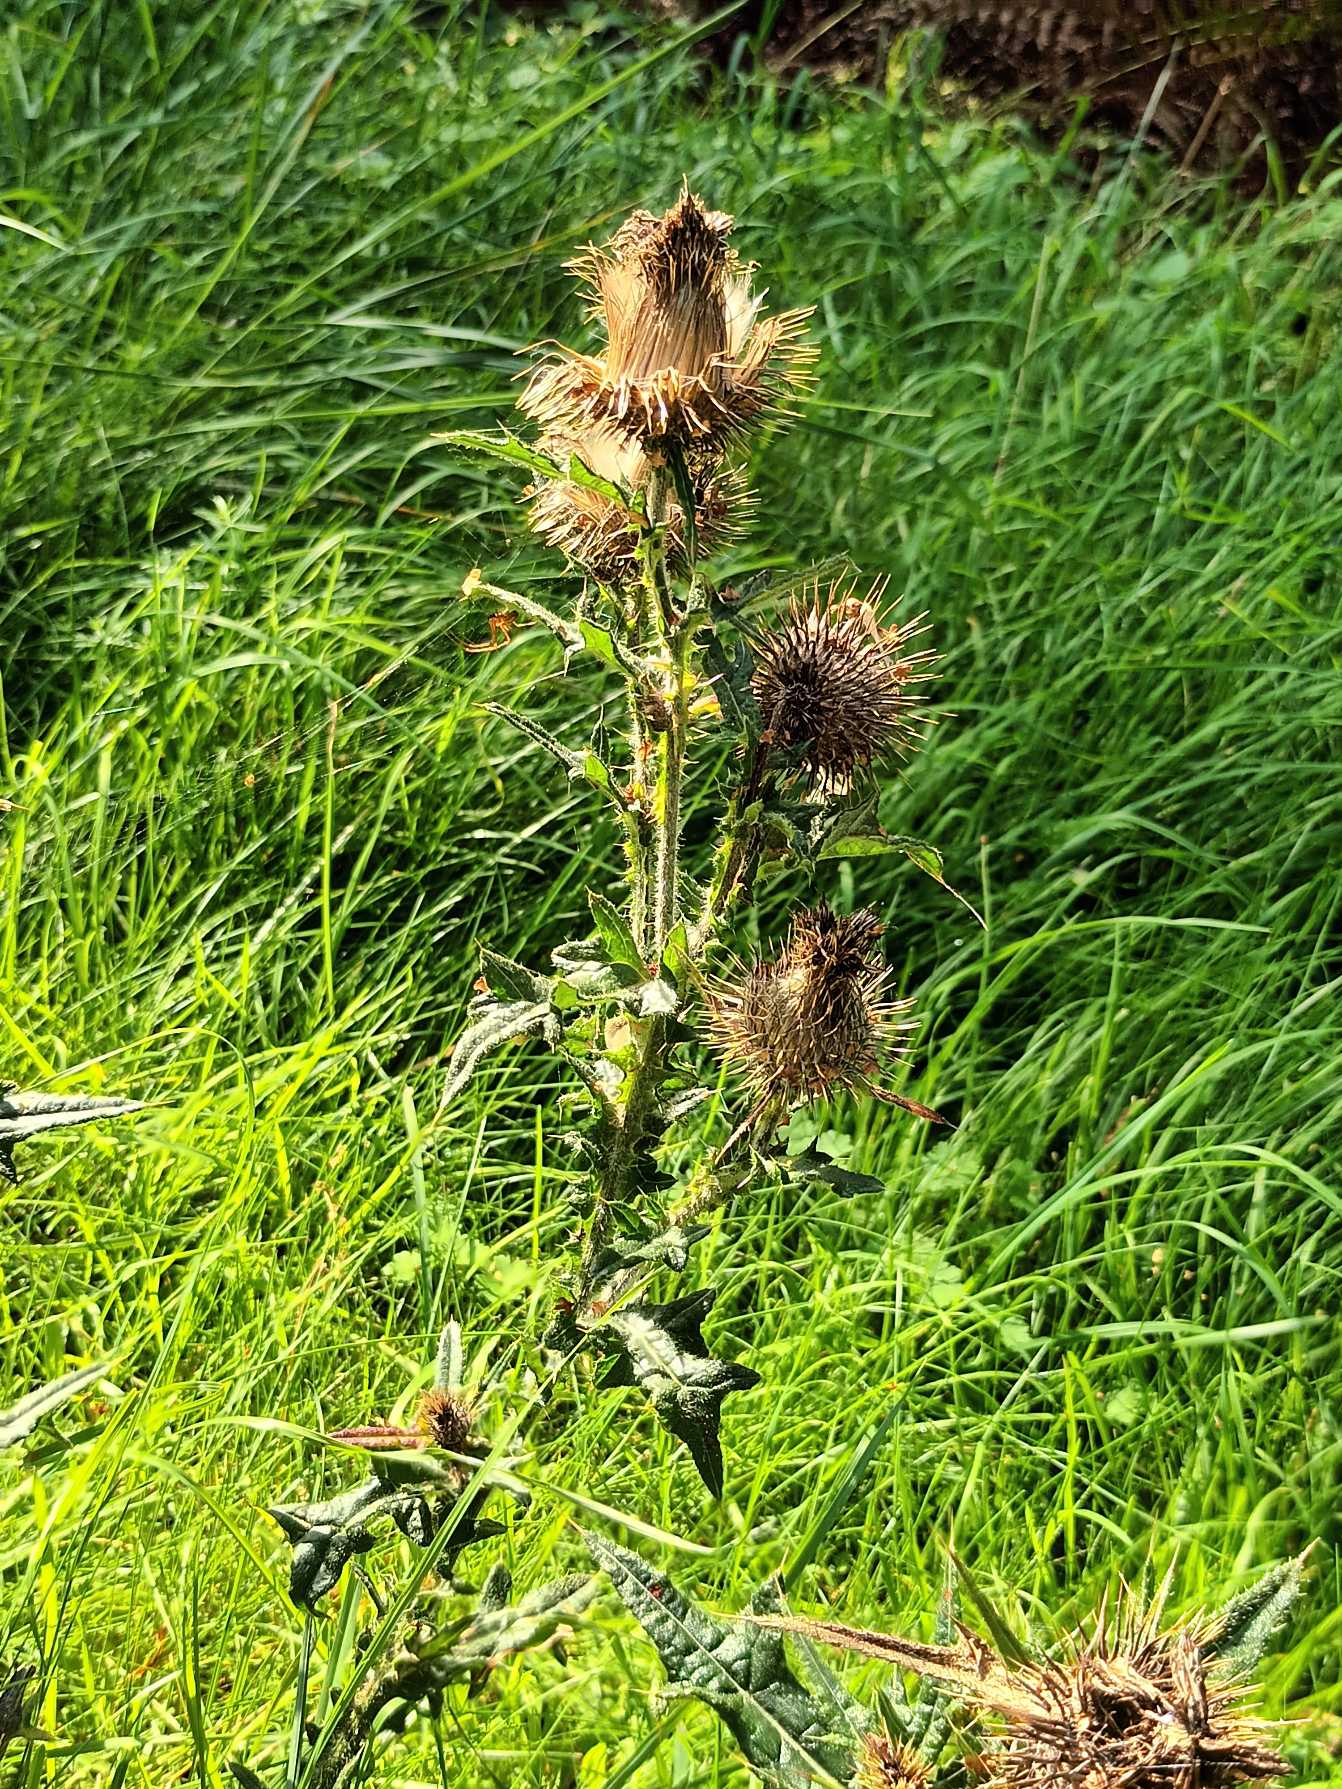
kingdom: Plantae
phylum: Tracheophyta
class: Magnoliopsida
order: Asterales
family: Asteraceae
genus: Cirsium
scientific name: Cirsium vulgare
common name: Horse-tidsel
